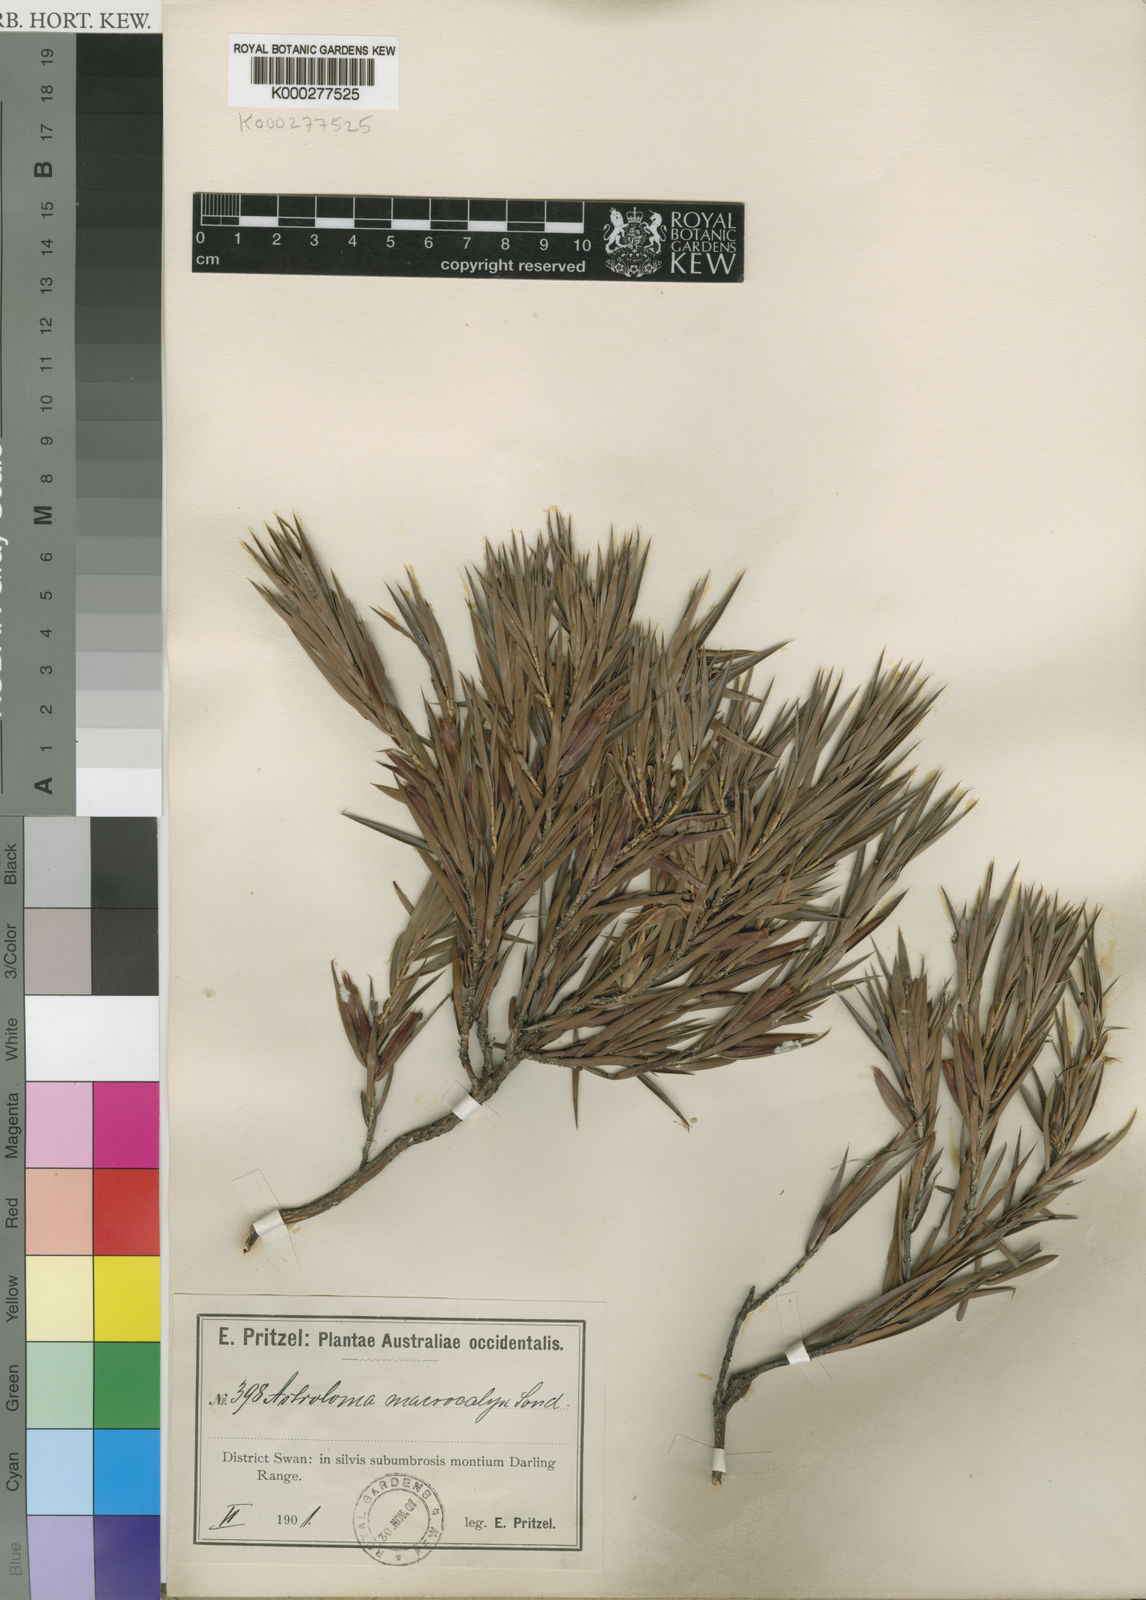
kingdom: Plantae
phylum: Tracheophyta
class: Magnoliopsida
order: Ericales
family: Ericaceae
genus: Styphelia
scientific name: Styphelia macrocalyx
